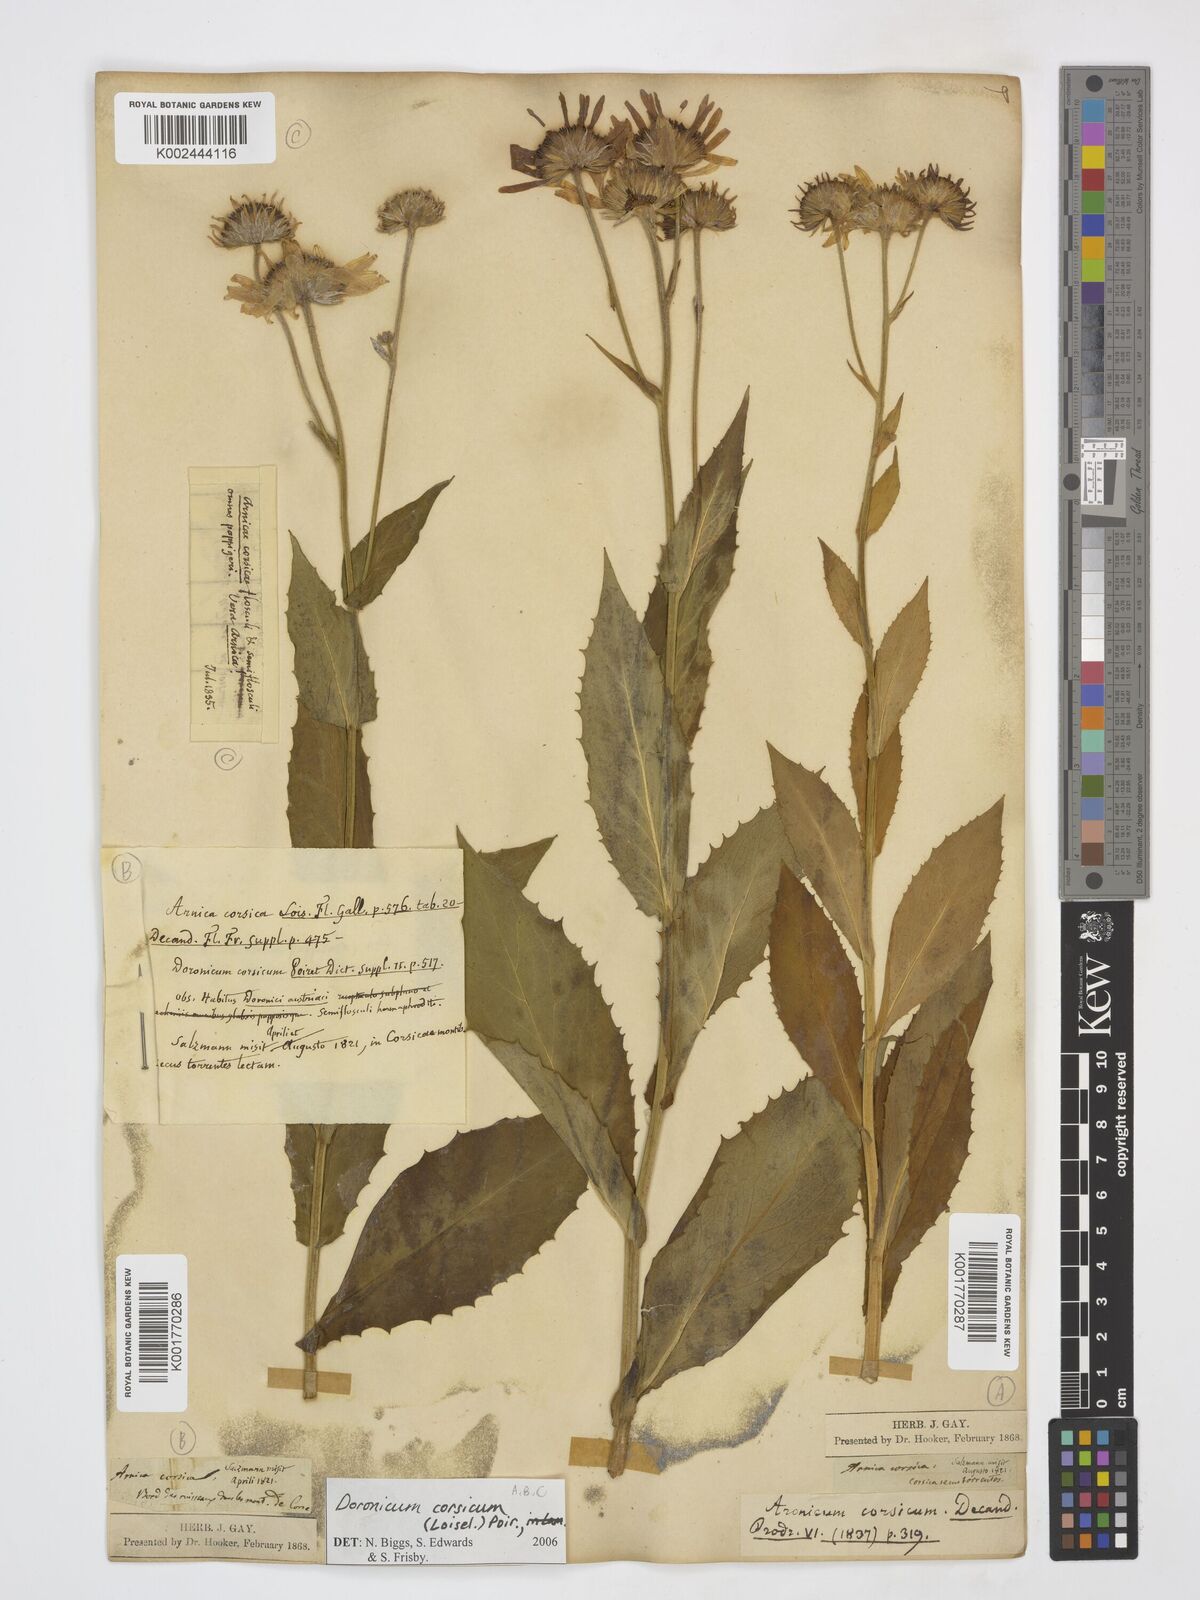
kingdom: Plantae
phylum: Tracheophyta
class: Magnoliopsida
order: Asterales
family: Asteraceae
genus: Doronicum
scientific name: Doronicum corsicum
